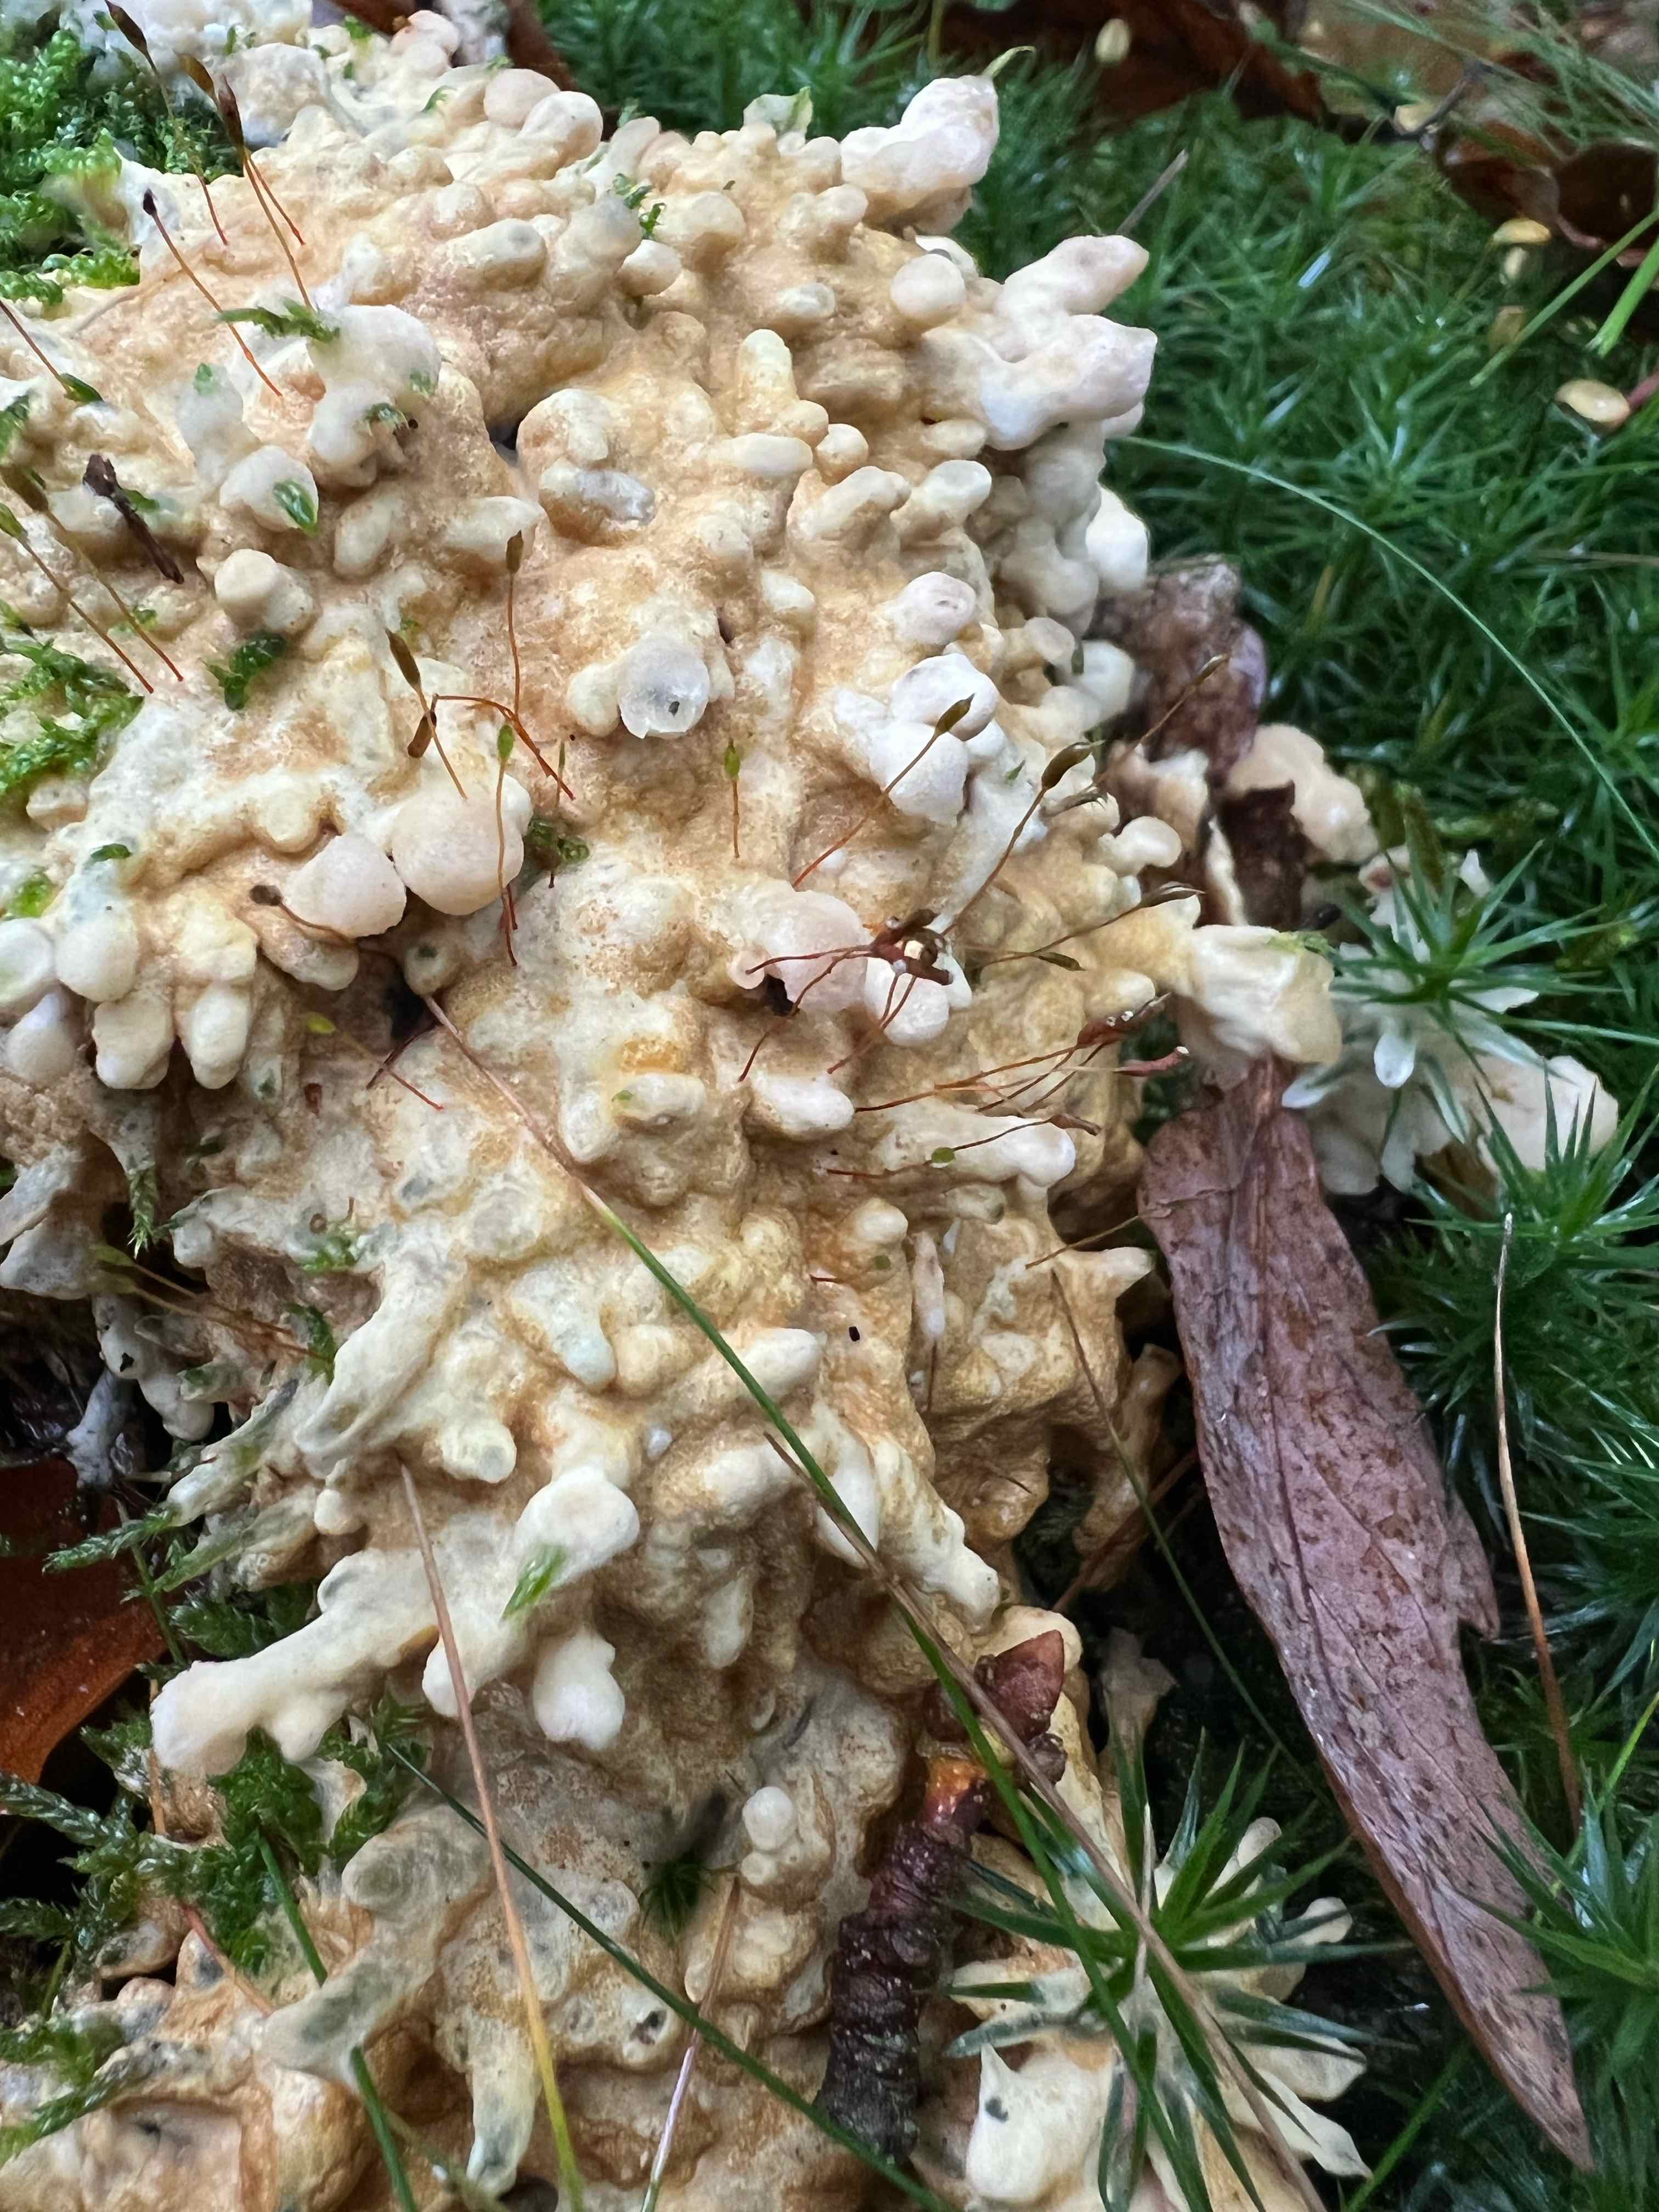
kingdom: Fungi
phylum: Ascomycota
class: Sordariomycetes
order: Hypocreales
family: Hypocreaceae
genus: Trichoderma
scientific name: Trichoderma citrinum
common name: udbredt kødkerne
